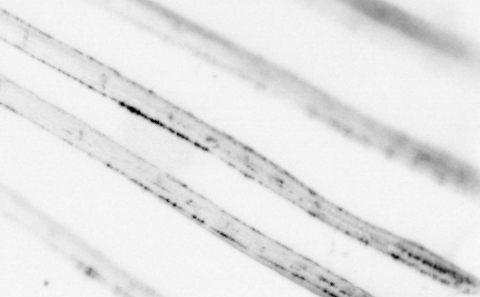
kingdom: Animalia
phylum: Chordata
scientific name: Chordata
